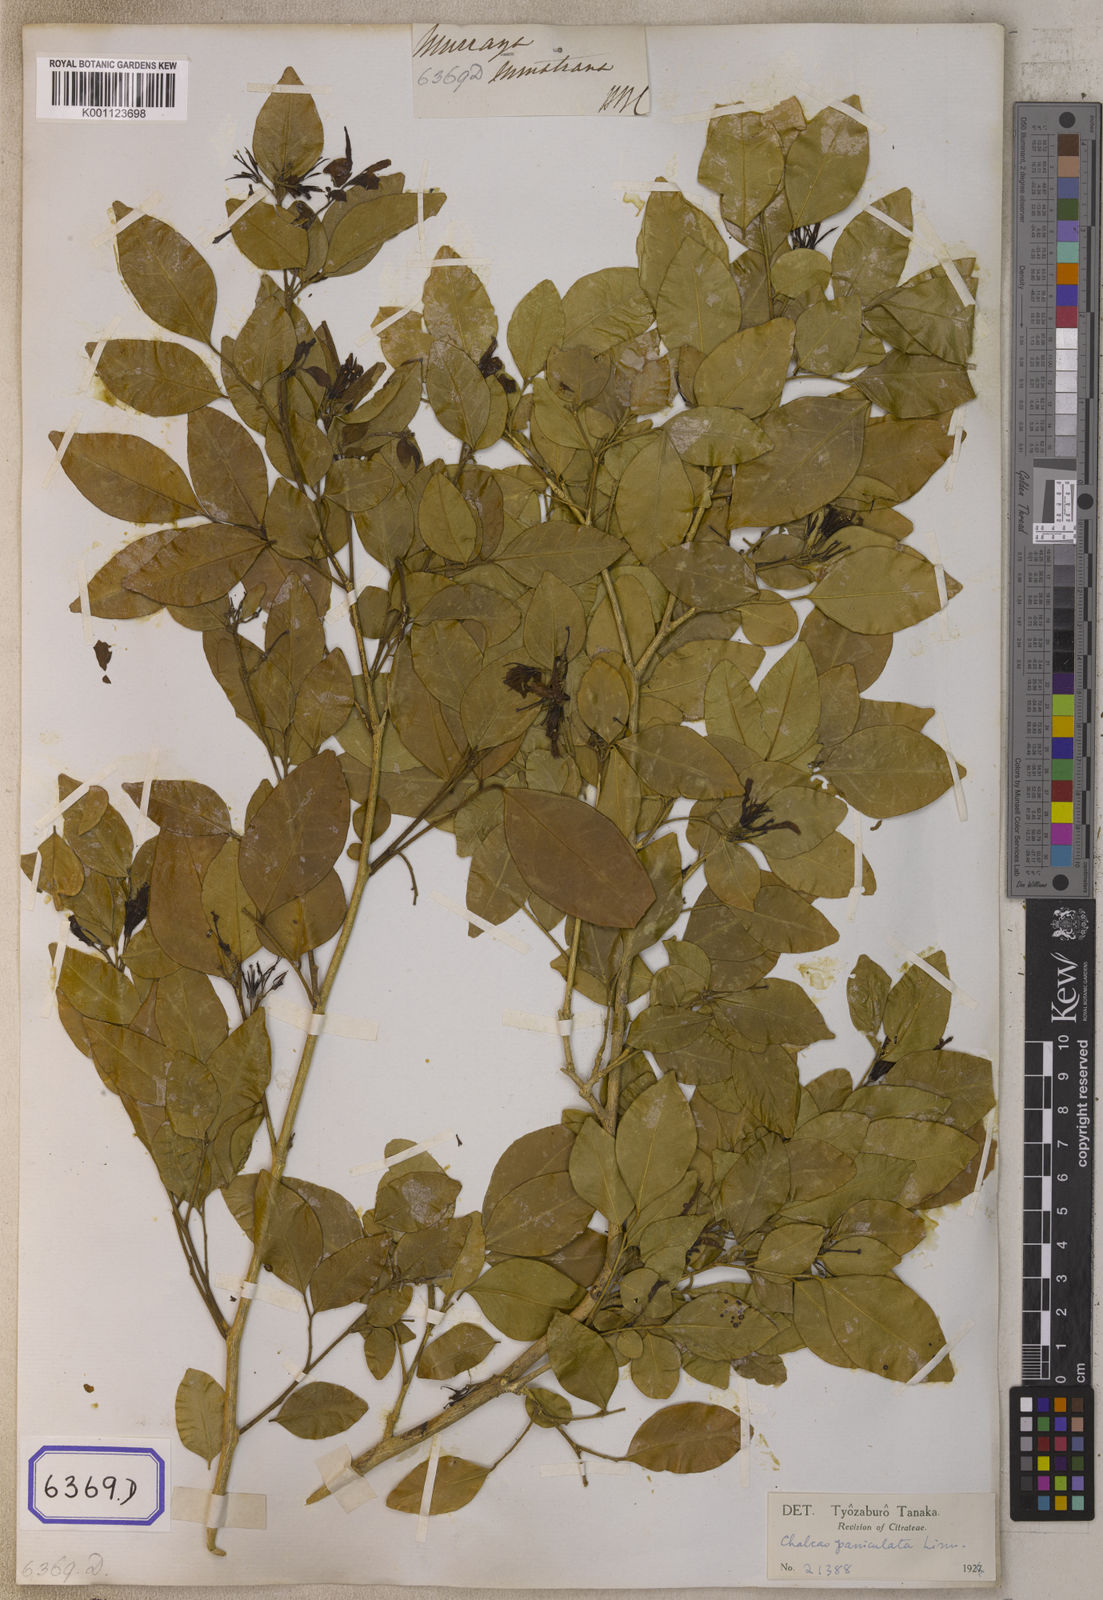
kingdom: Plantae
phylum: Tracheophyta
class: Magnoliopsida
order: Sapindales
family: Rutaceae
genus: Murraya
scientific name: Murraya sumatrana
